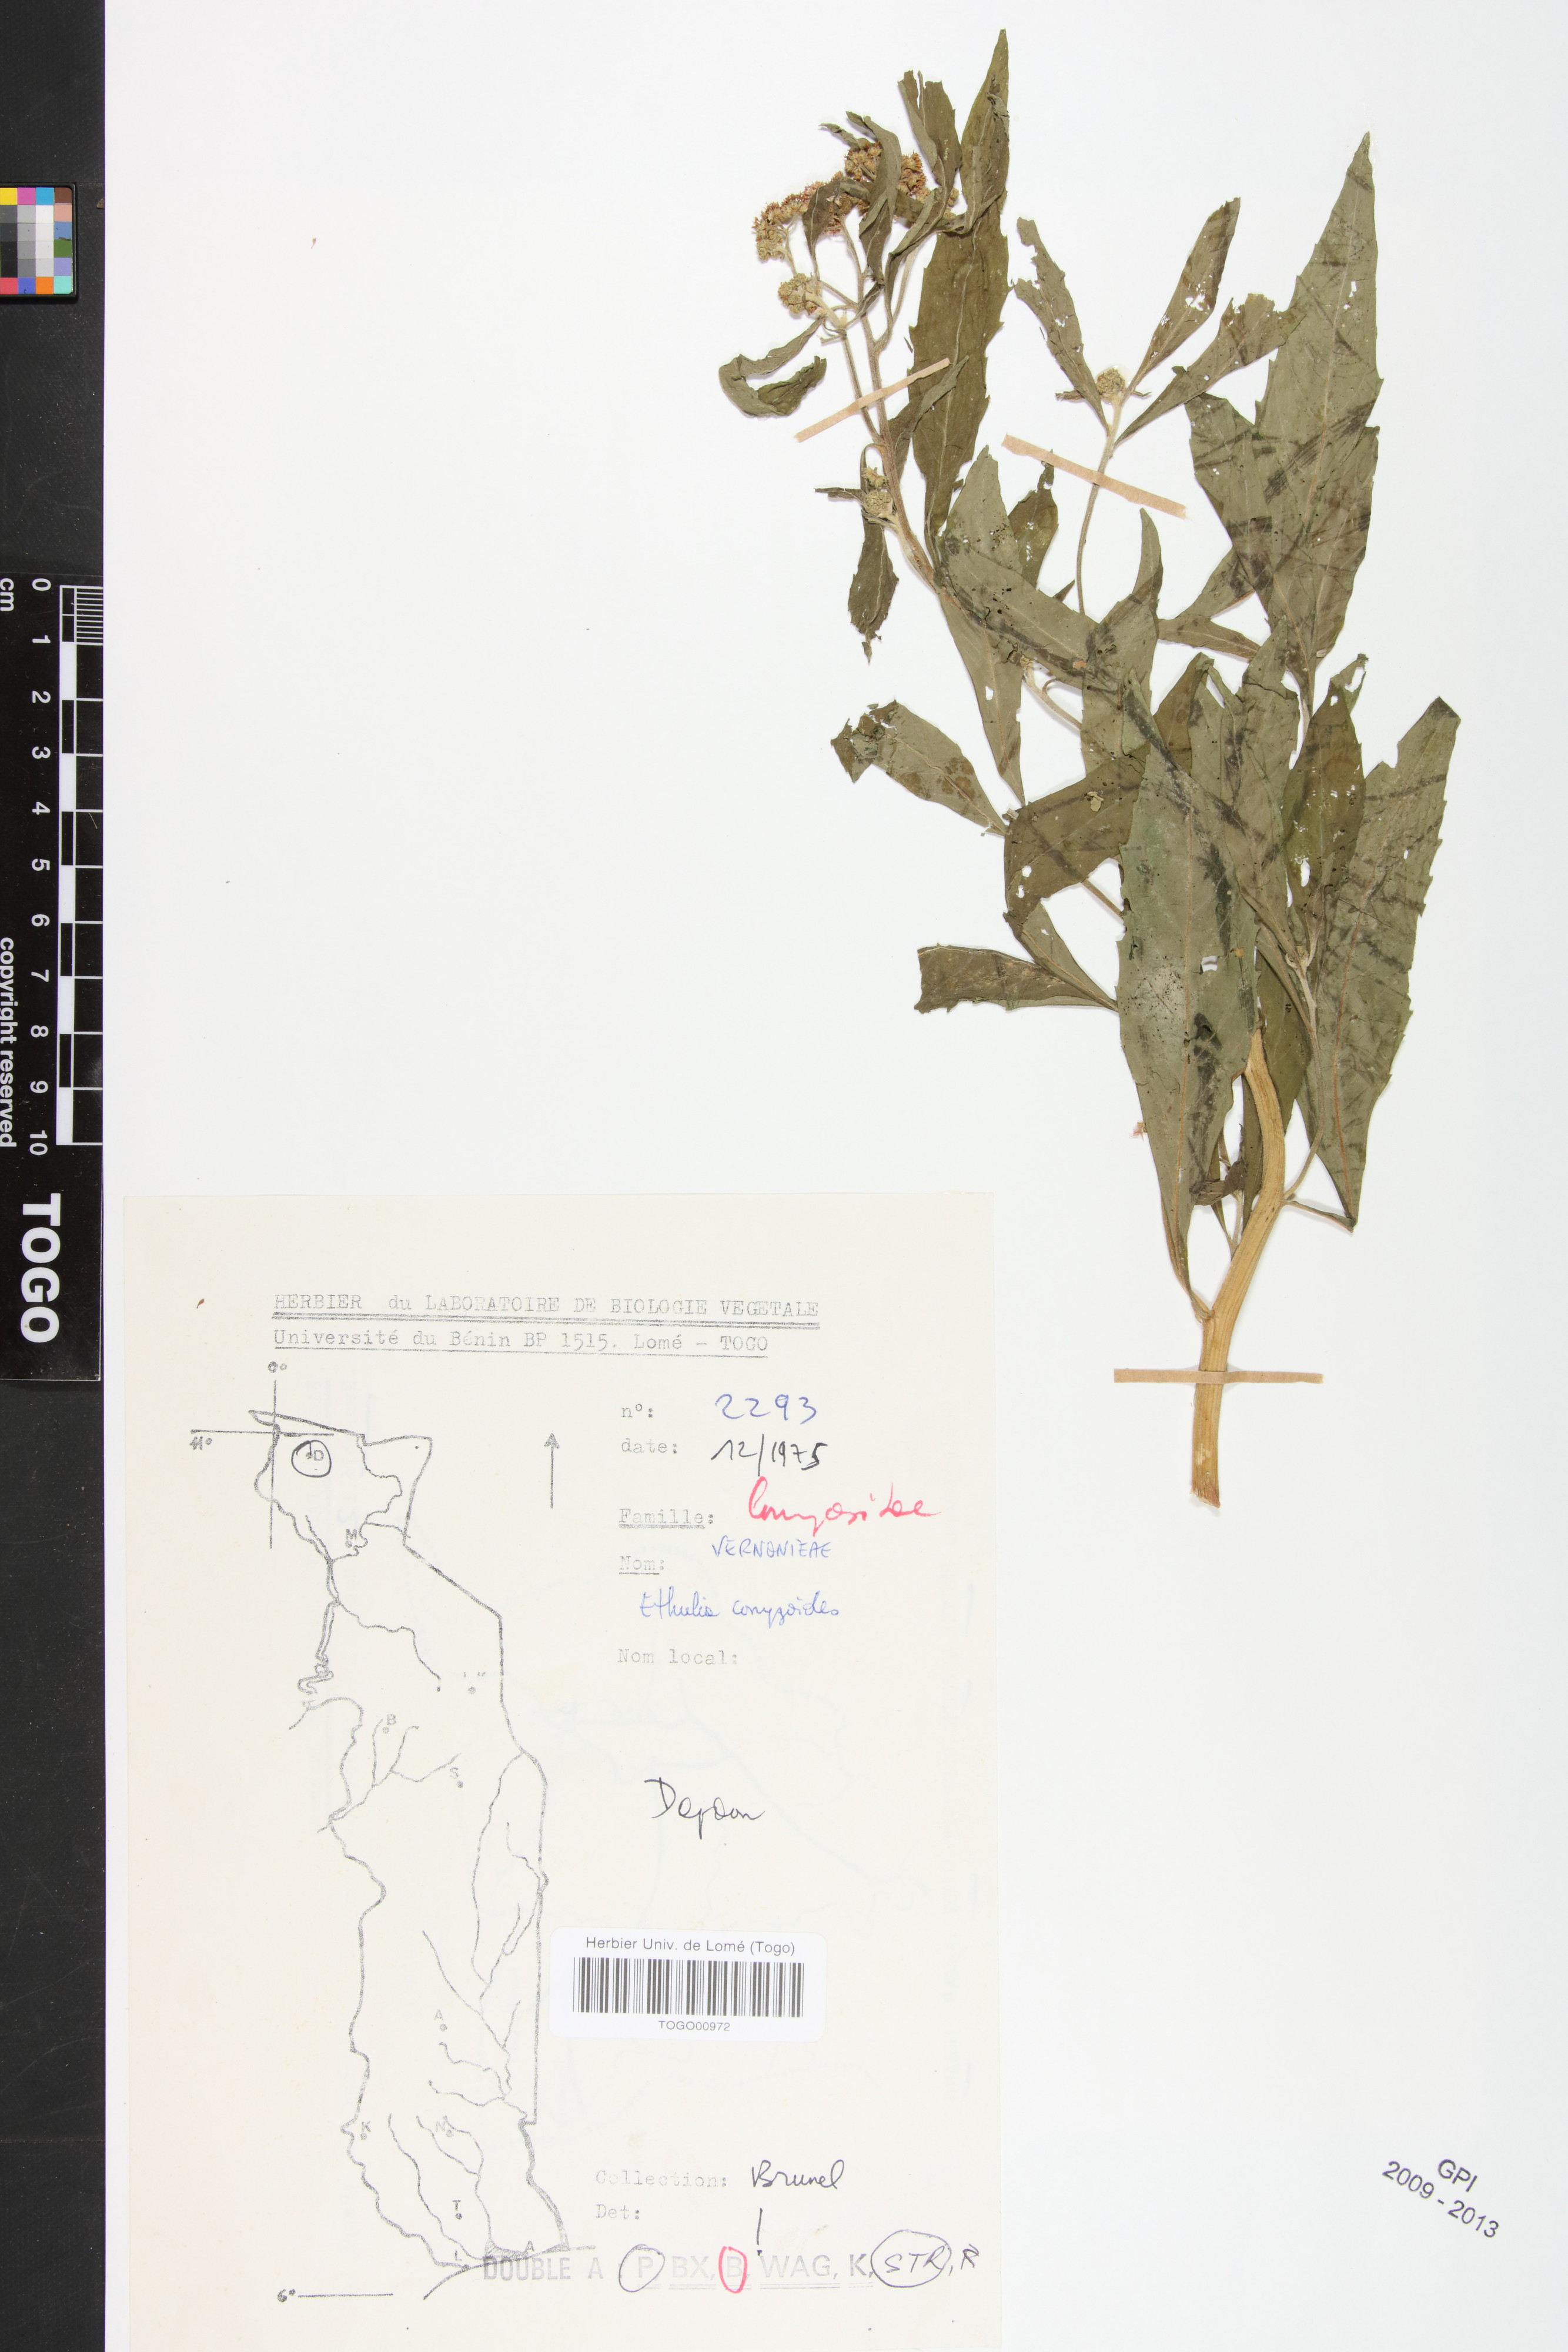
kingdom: Plantae
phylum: Tracheophyta
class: Magnoliopsida
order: Asterales
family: Asteraceae
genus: Ethulia
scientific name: Ethulia conyzoides
